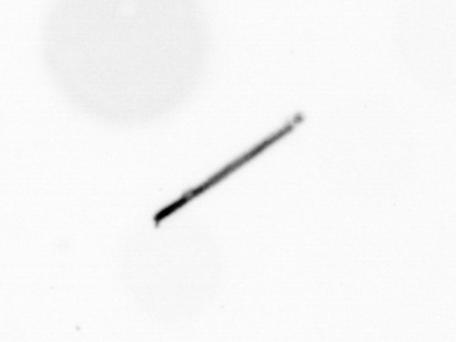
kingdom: Chromista
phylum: Ochrophyta
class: Bacillariophyceae
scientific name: Bacillariophyceae
